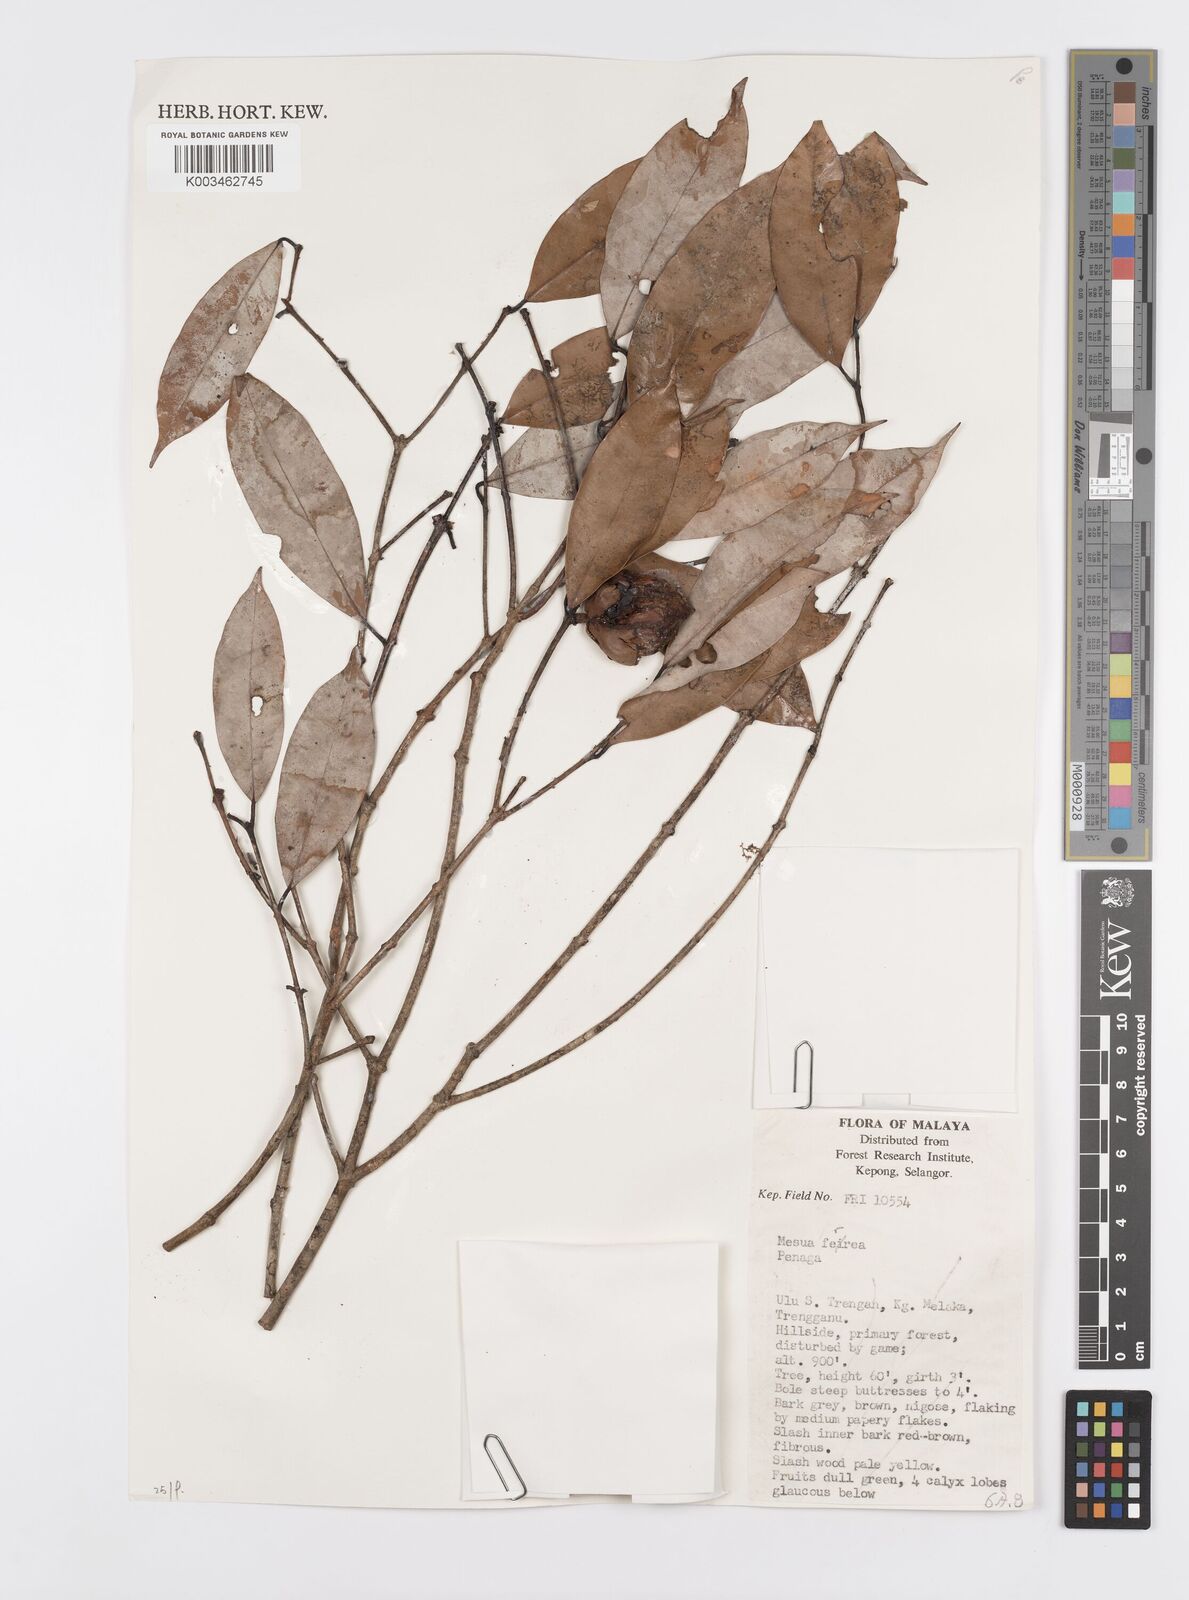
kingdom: Plantae
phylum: Tracheophyta
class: Magnoliopsida
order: Malpighiales
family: Calophyllaceae
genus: Mesua
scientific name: Mesua ferrea
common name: Mesua
